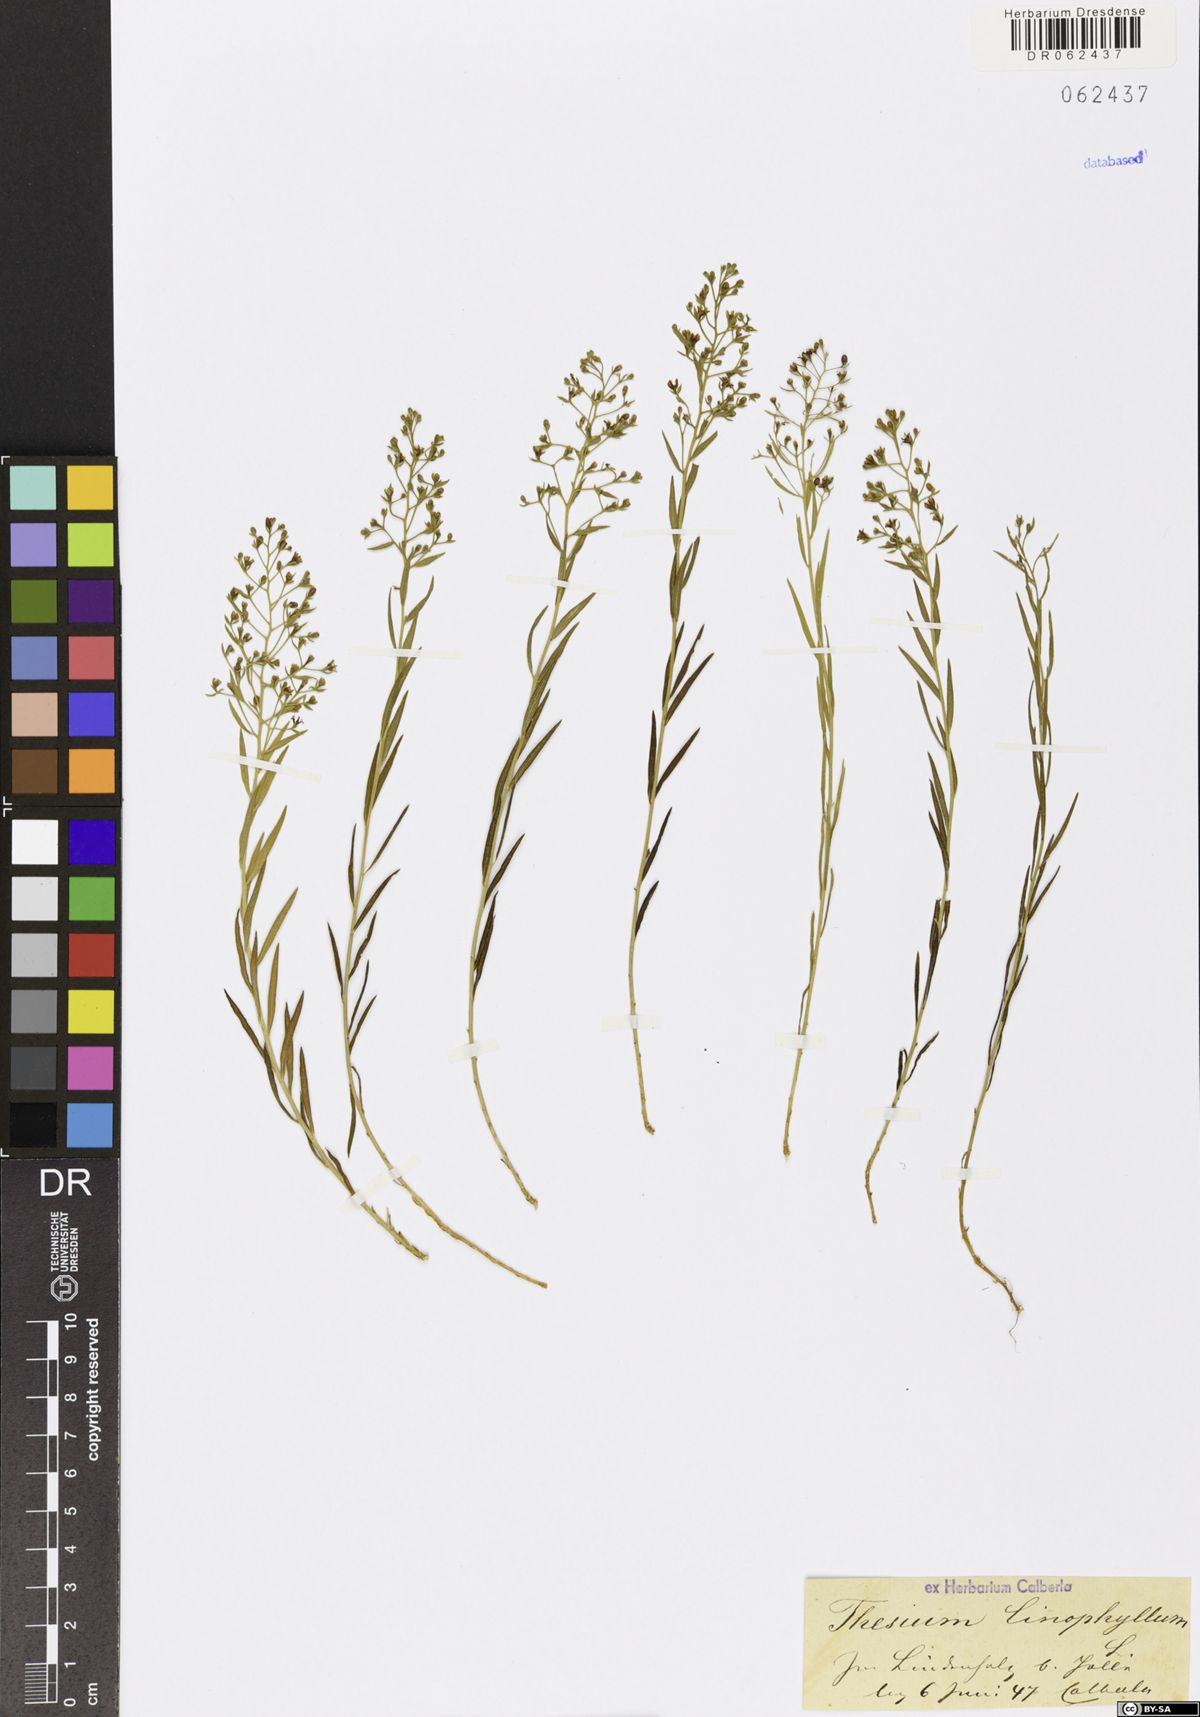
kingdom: Plantae
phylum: Tracheophyta
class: Magnoliopsida
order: Santalales
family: Thesiaceae
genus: Thesium
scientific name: Thesium linophyllon
